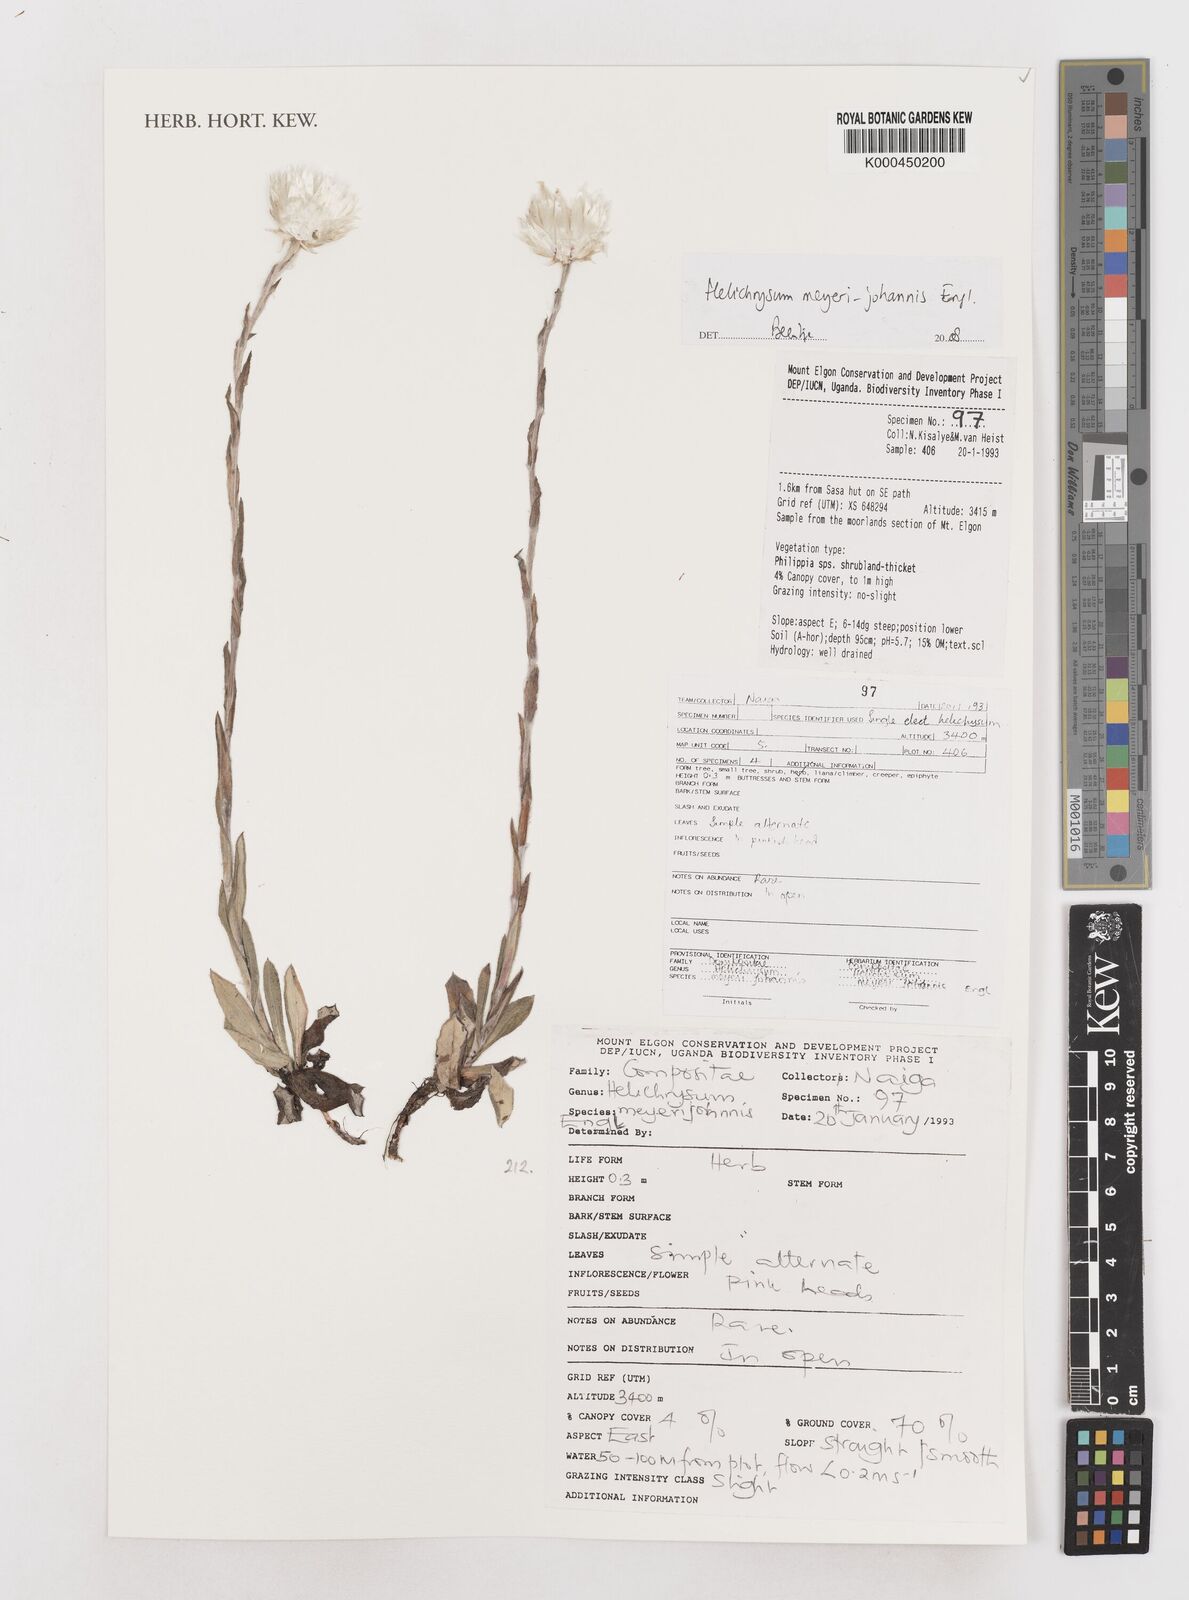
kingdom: Plantae
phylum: Tracheophyta
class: Magnoliopsida
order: Asterales
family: Asteraceae
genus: Helichrysum
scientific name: Helichrysum meyeri-johannis
